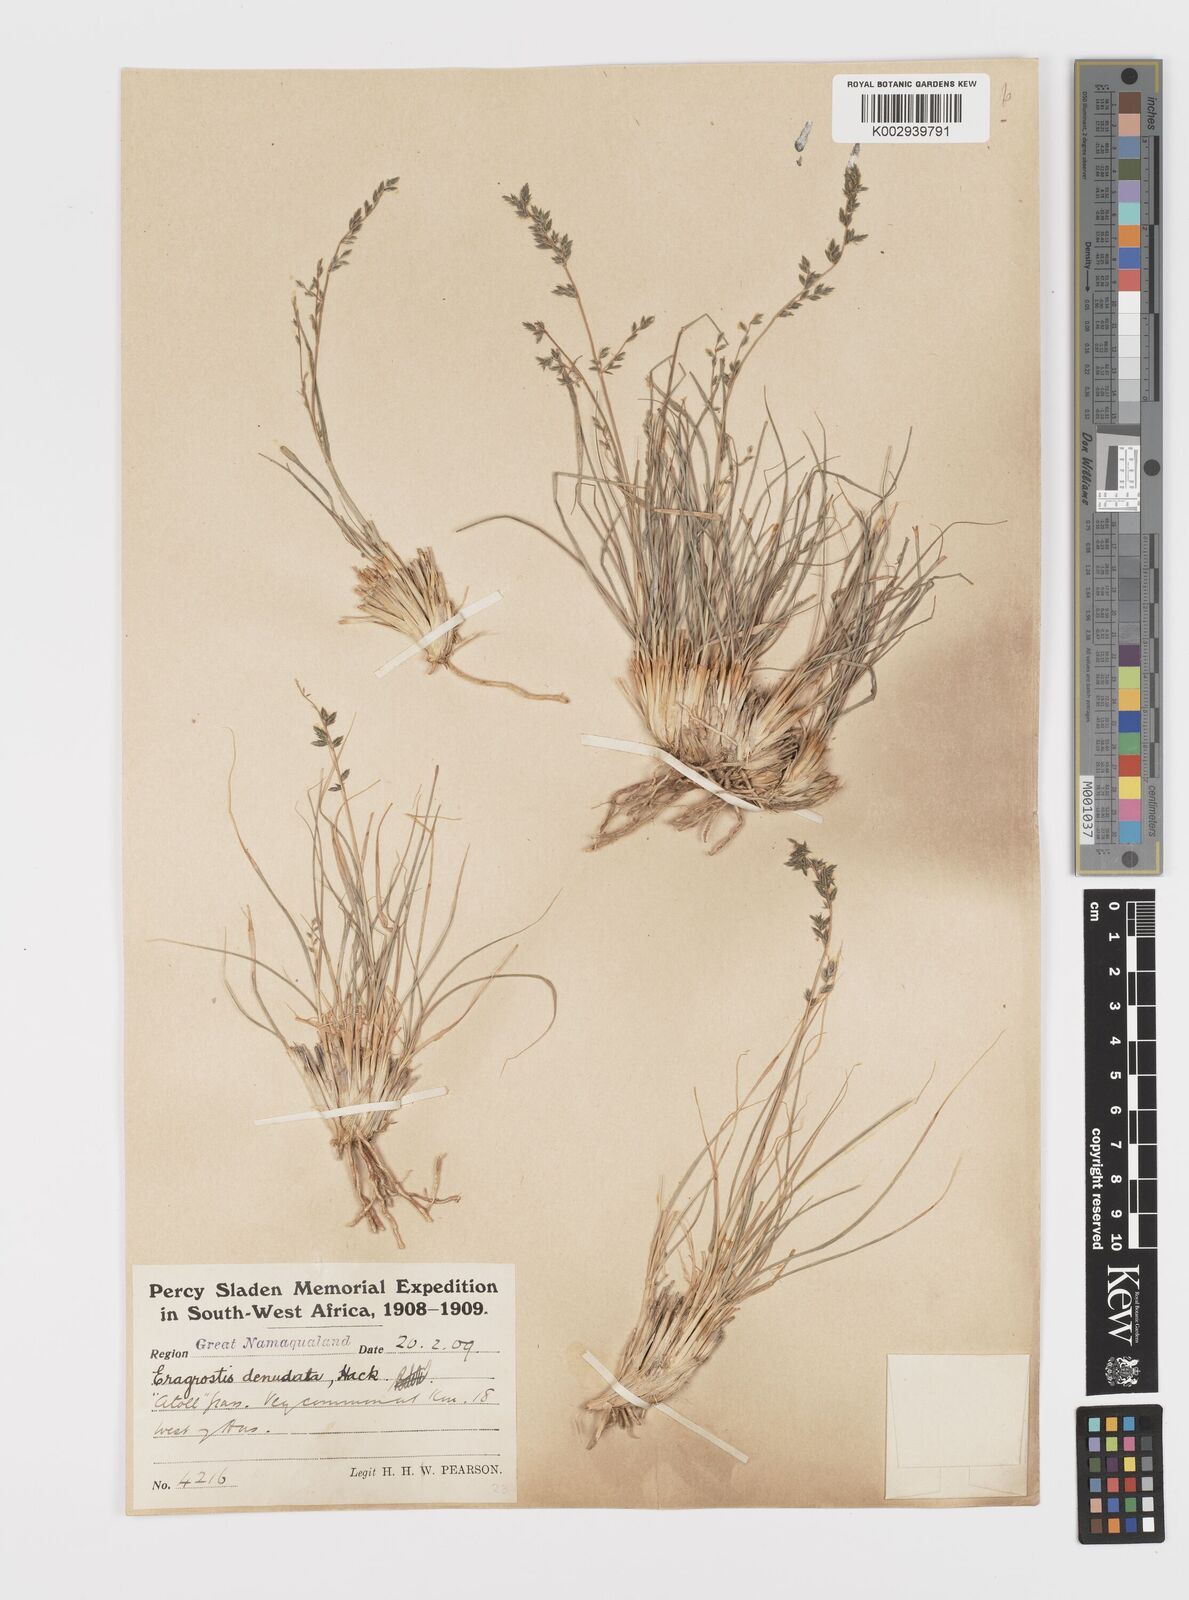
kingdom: Plantae
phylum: Tracheophyta
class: Liliopsida
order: Poales
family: Poaceae
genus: Eragrostis
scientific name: Eragrostis nindensis
